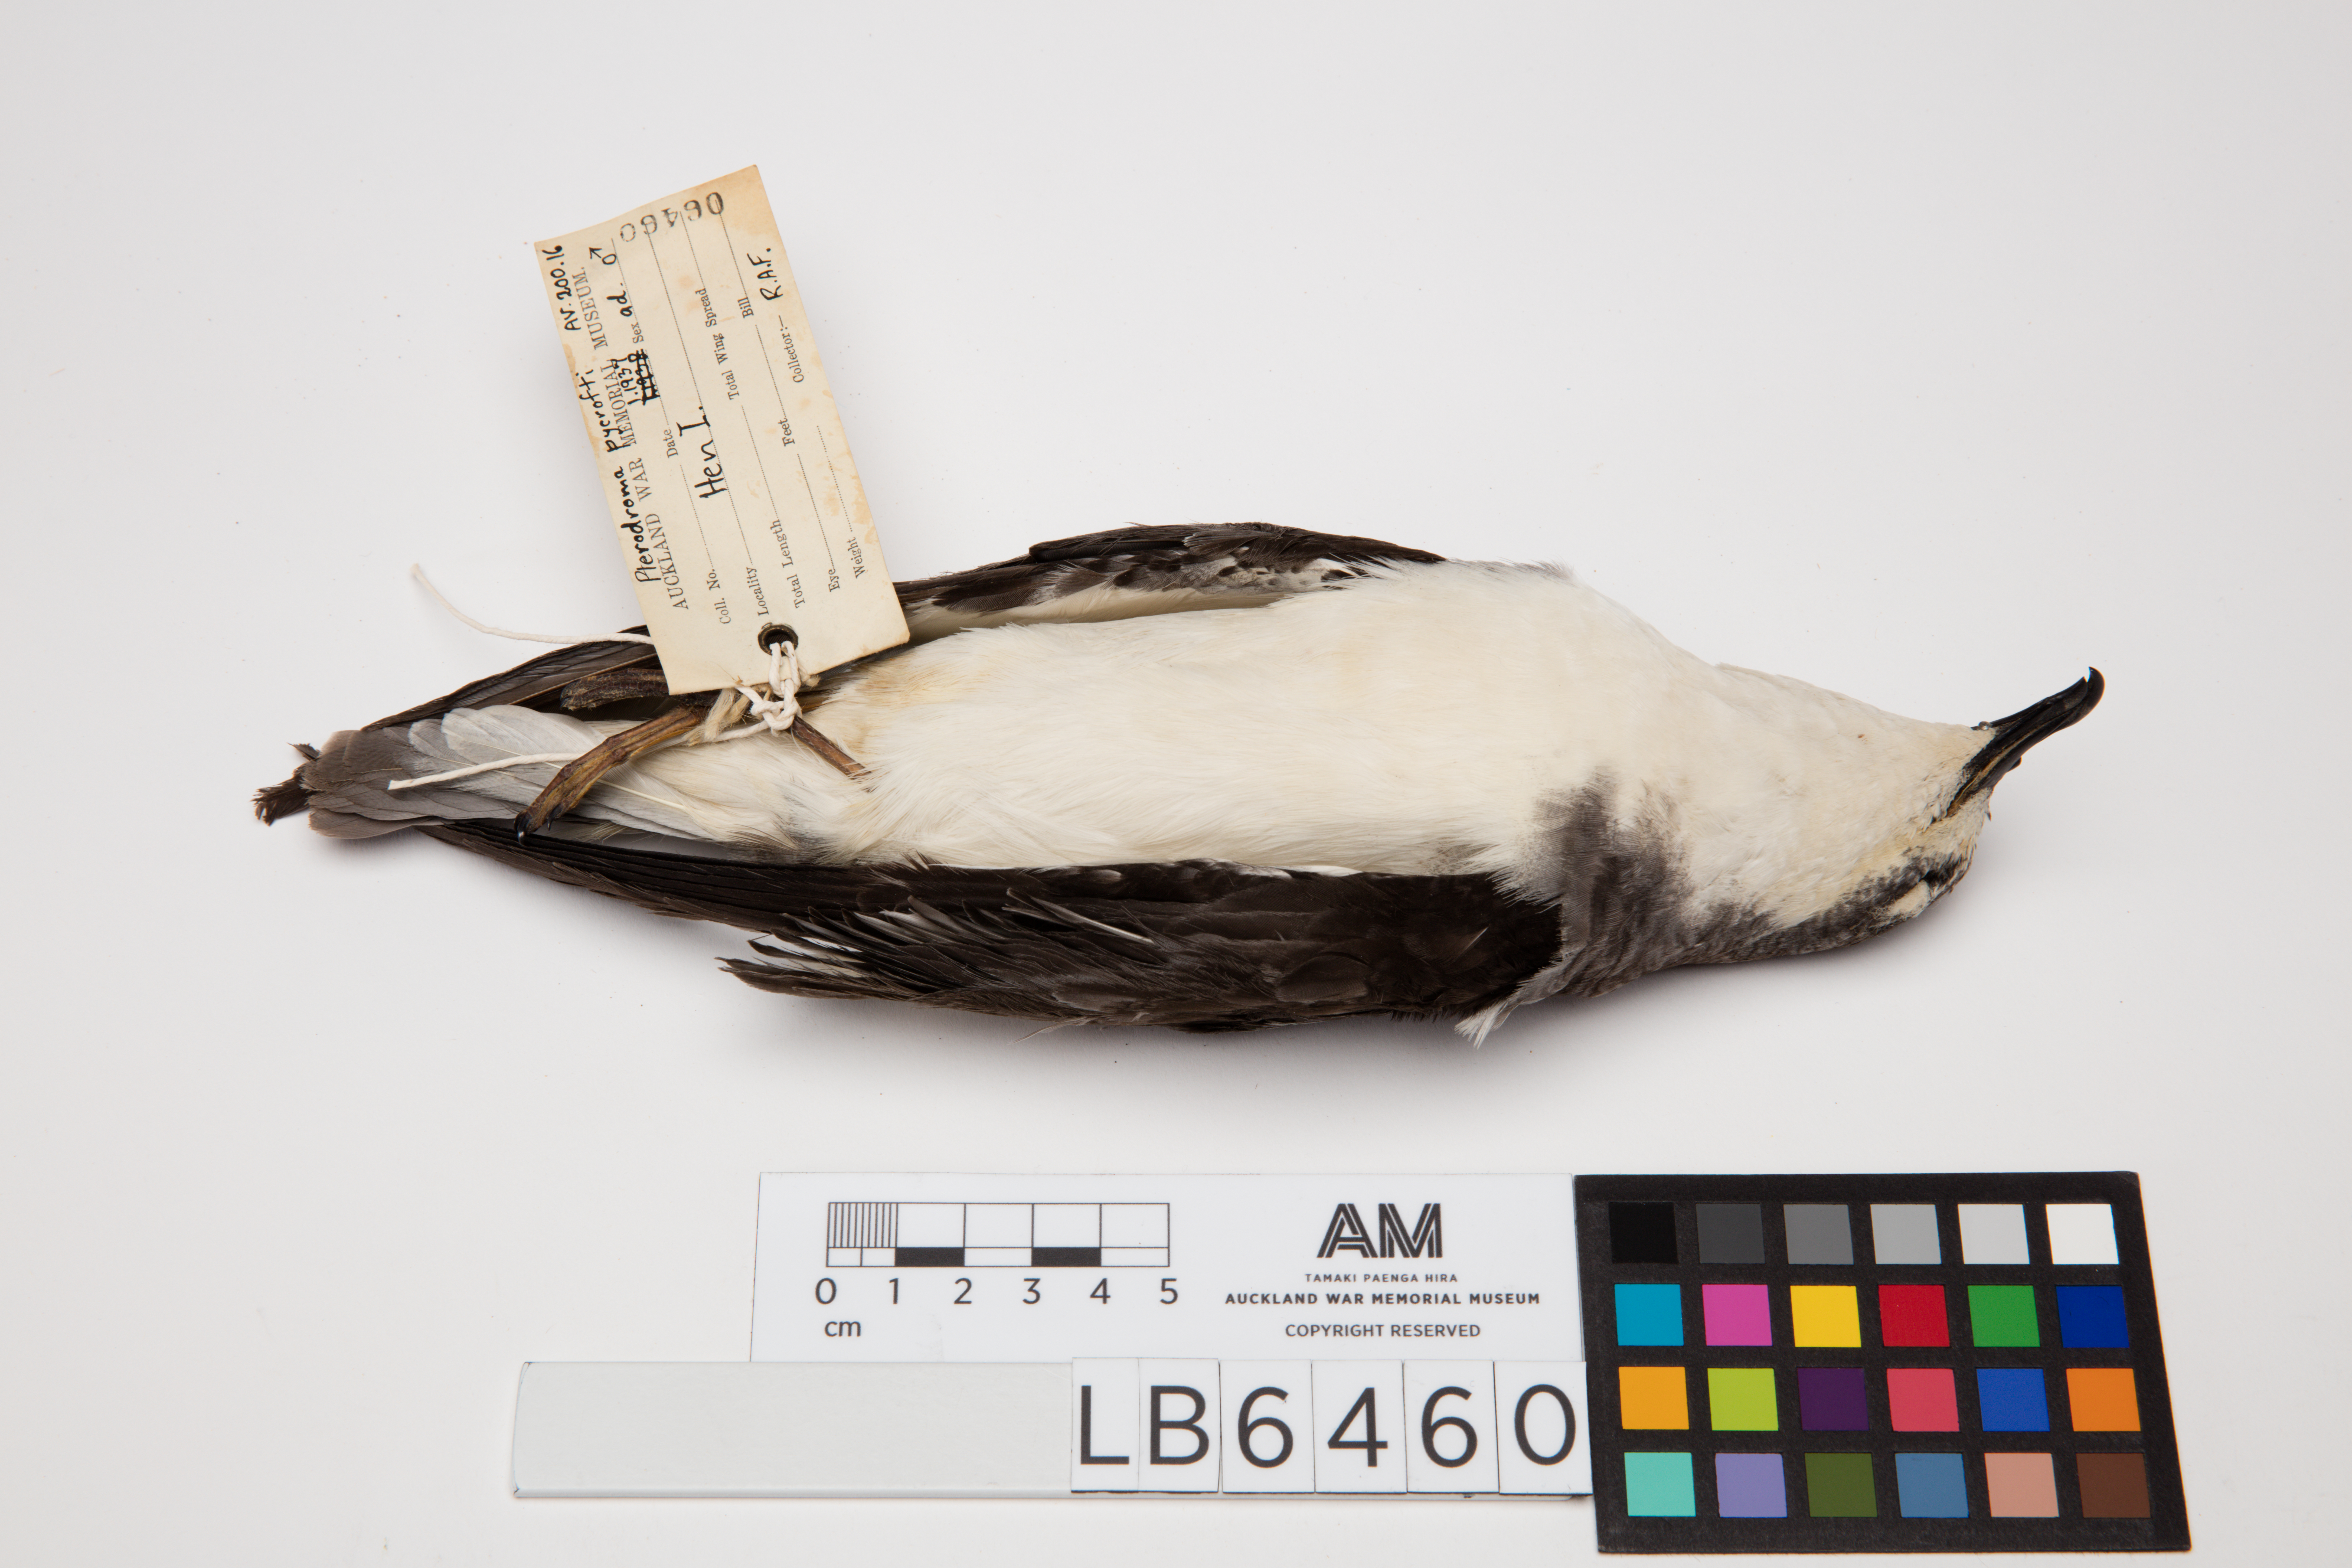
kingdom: Animalia
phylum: Chordata
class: Aves
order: Procellariiformes
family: Procellariidae
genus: Pterodroma
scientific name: Pterodroma pycrofti
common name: Pycroft's petrel
